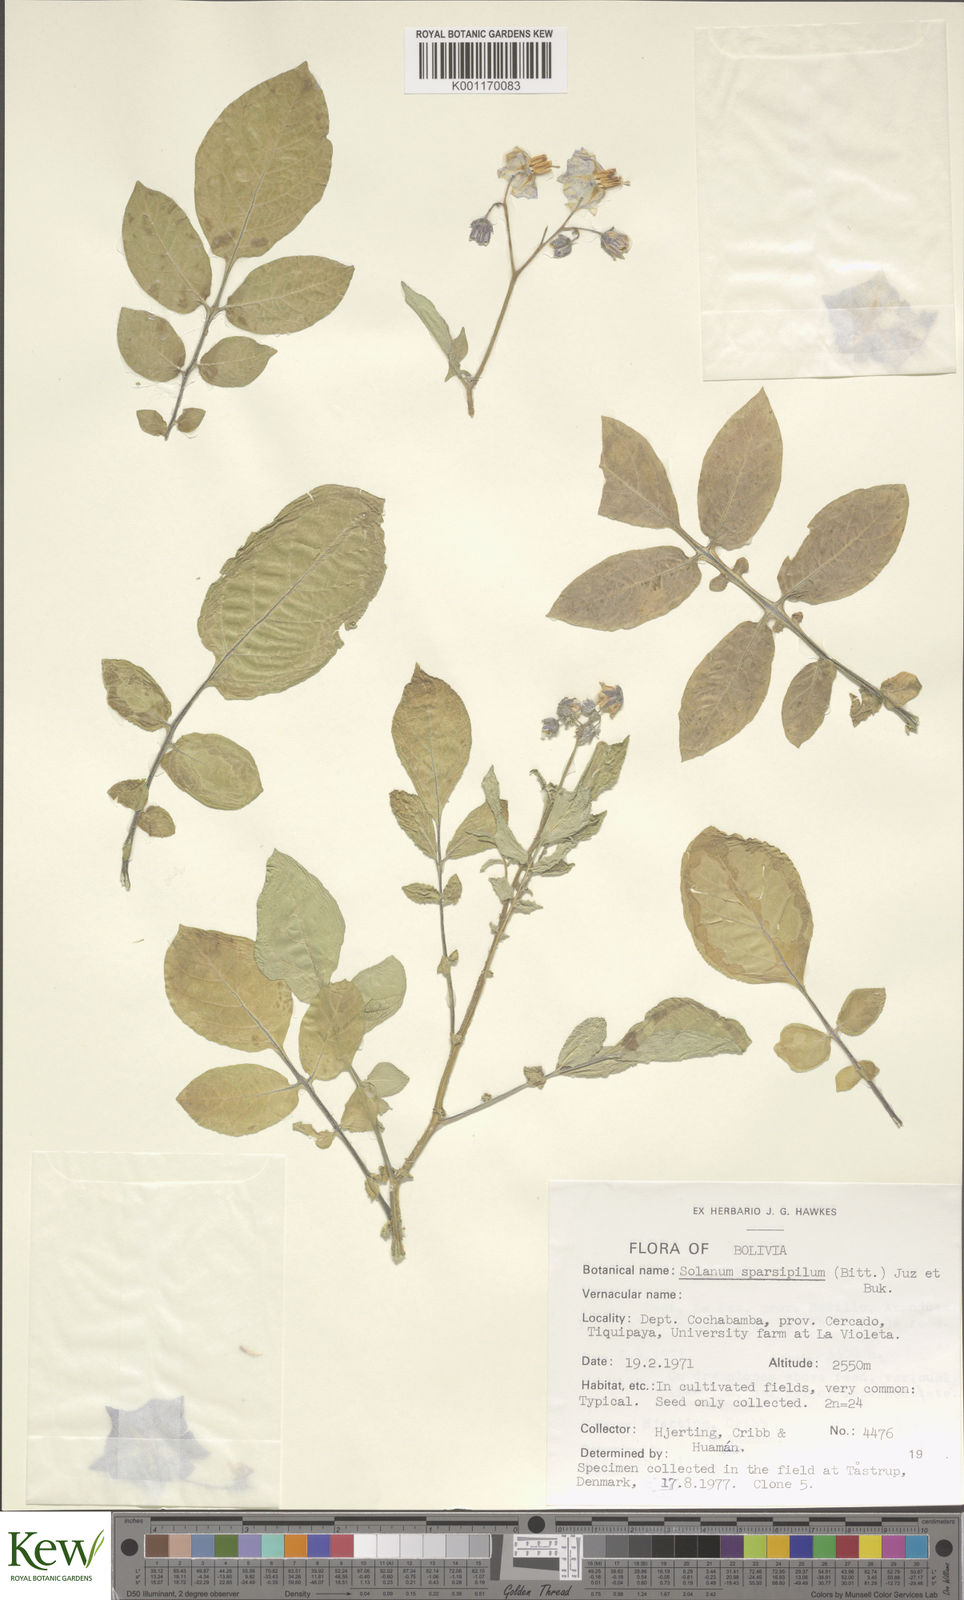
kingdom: Plantae
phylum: Tracheophyta
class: Magnoliopsida
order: Solanales
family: Solanaceae
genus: Solanum
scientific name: Solanum brevicaule
